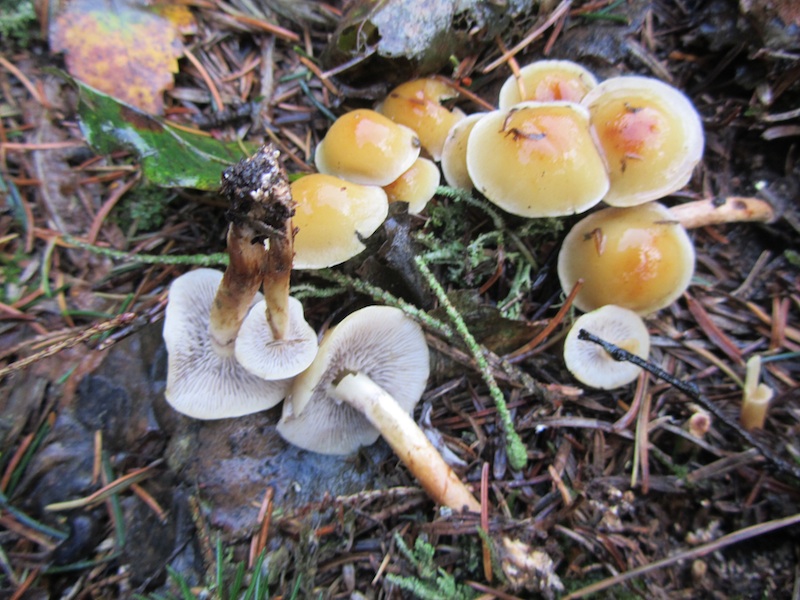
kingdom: Fungi
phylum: Basidiomycota
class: Agaricomycetes
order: Agaricales
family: Strophariaceae
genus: Hypholoma
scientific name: Hypholoma capnoides
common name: gran-svovlhat
